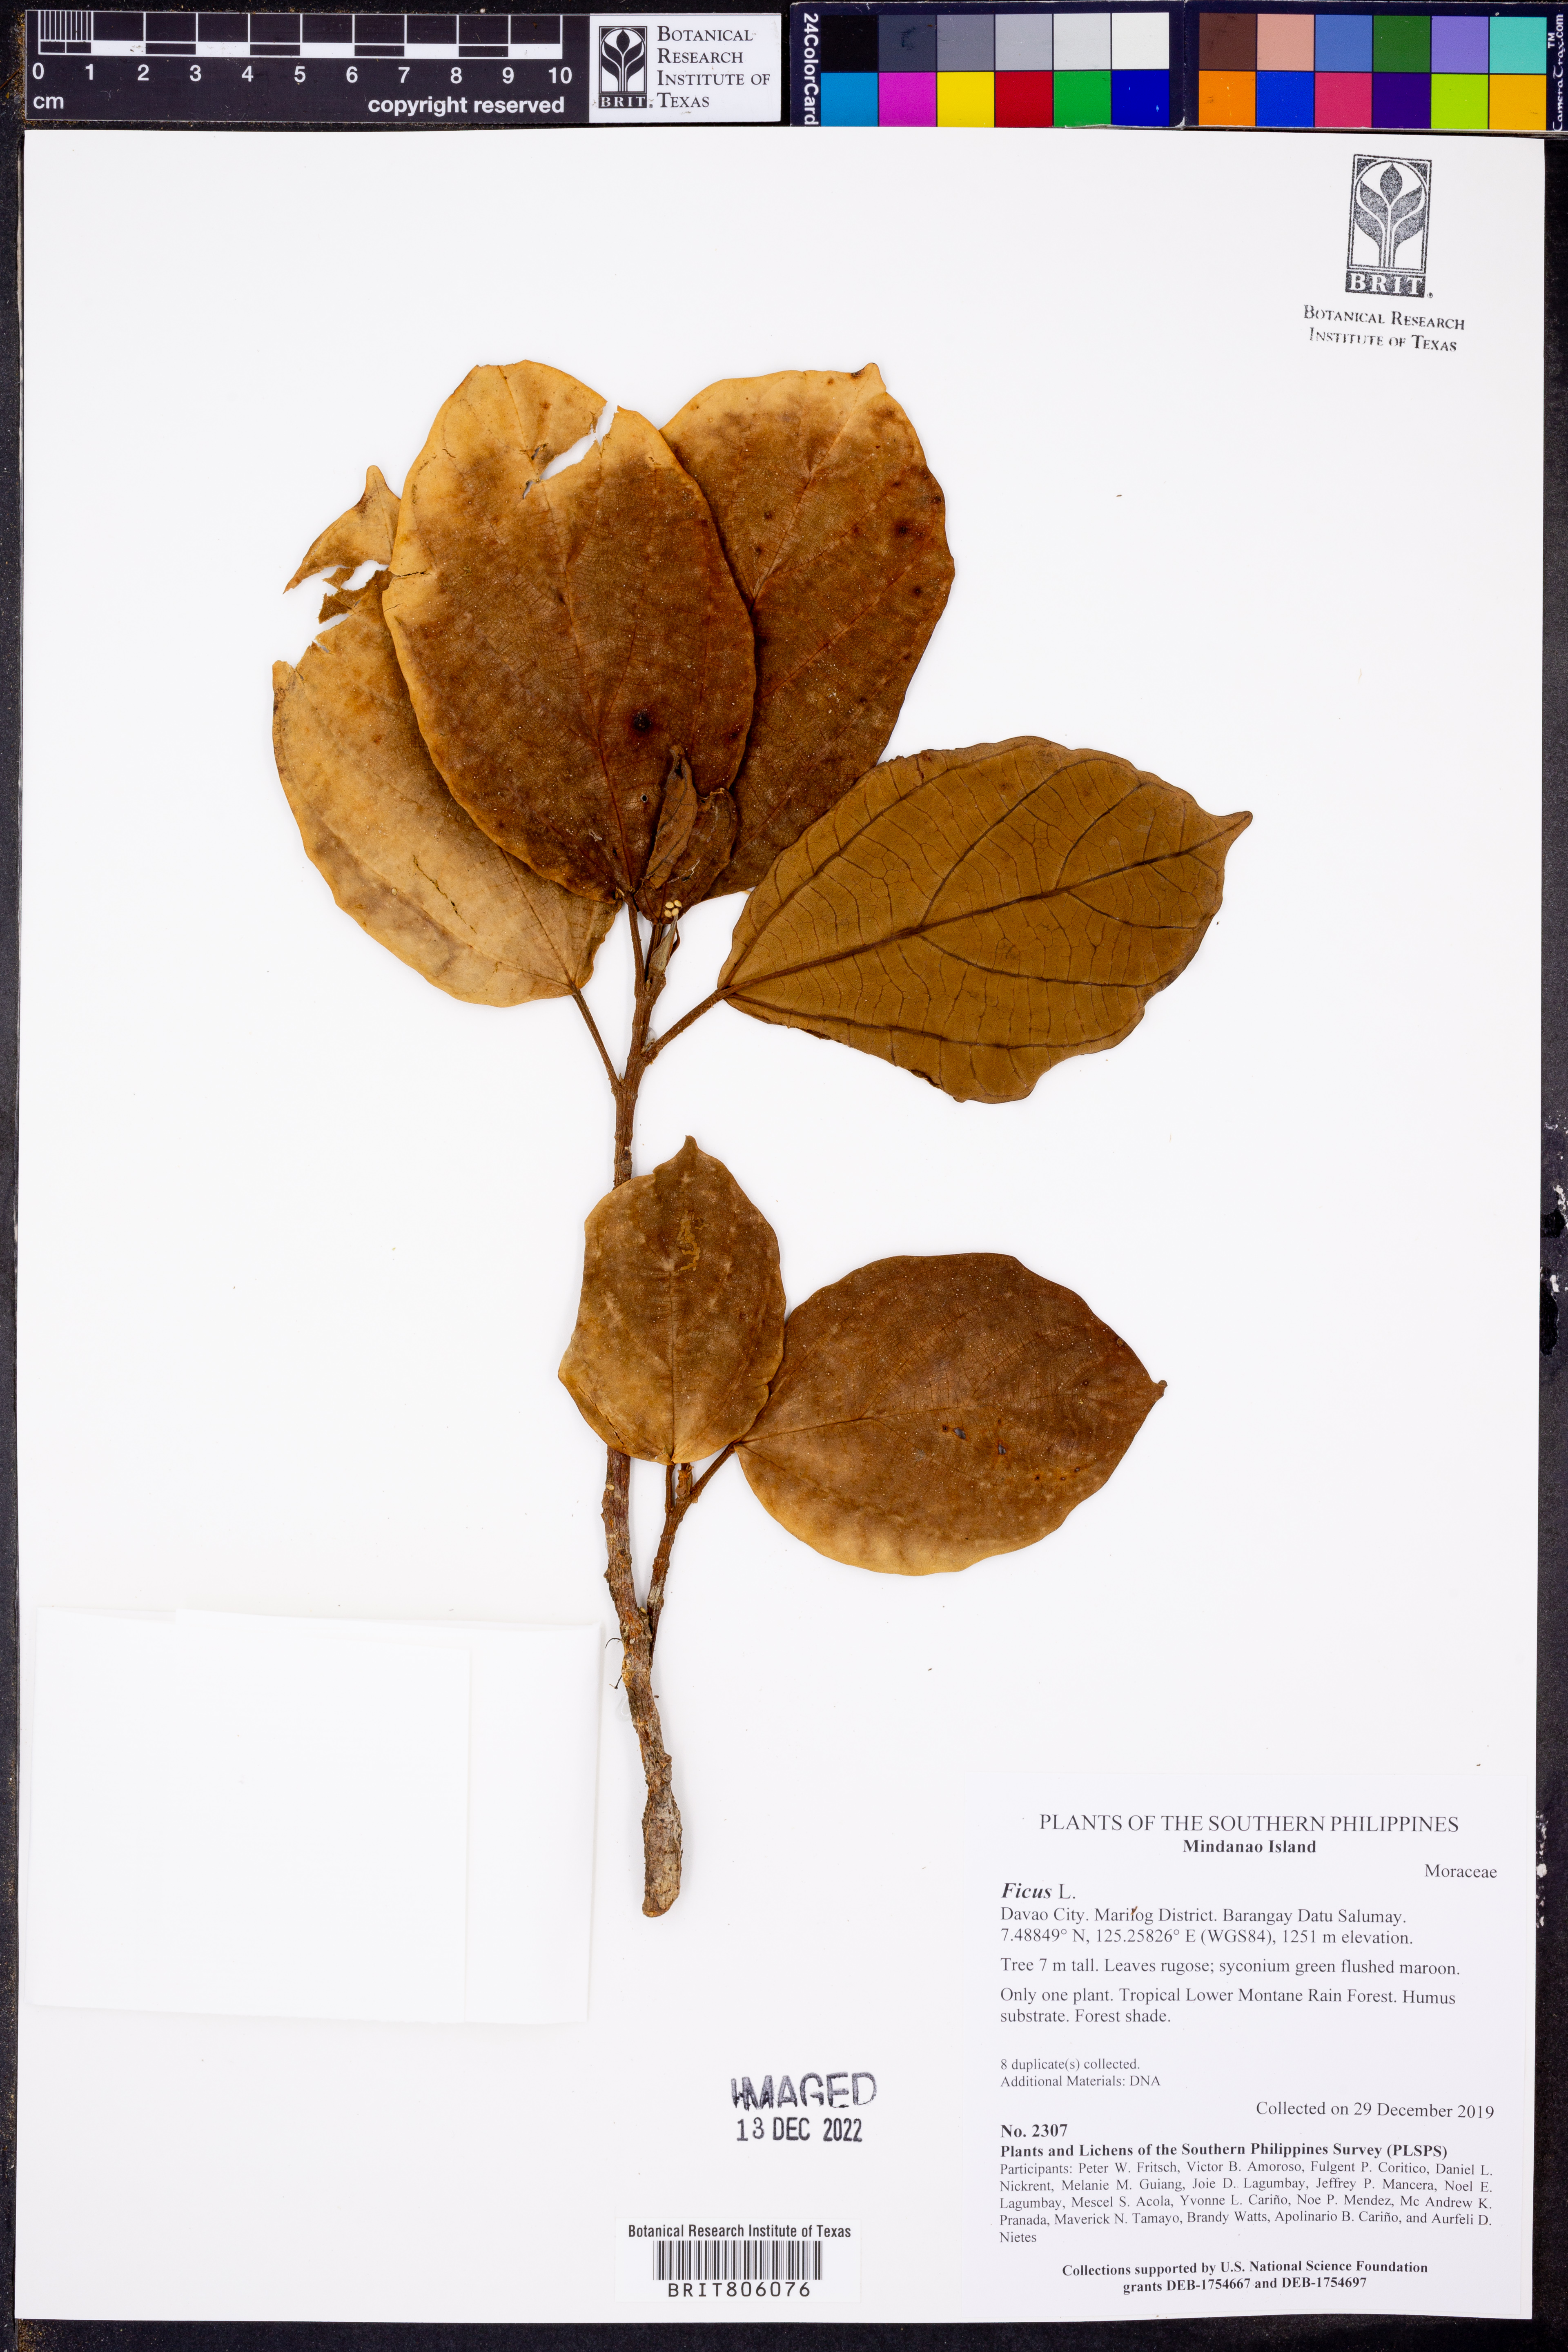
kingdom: Plantae
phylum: Tracheophyta
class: Magnoliopsida
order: Rosales
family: Moraceae
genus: Ficus
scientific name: Ficus
